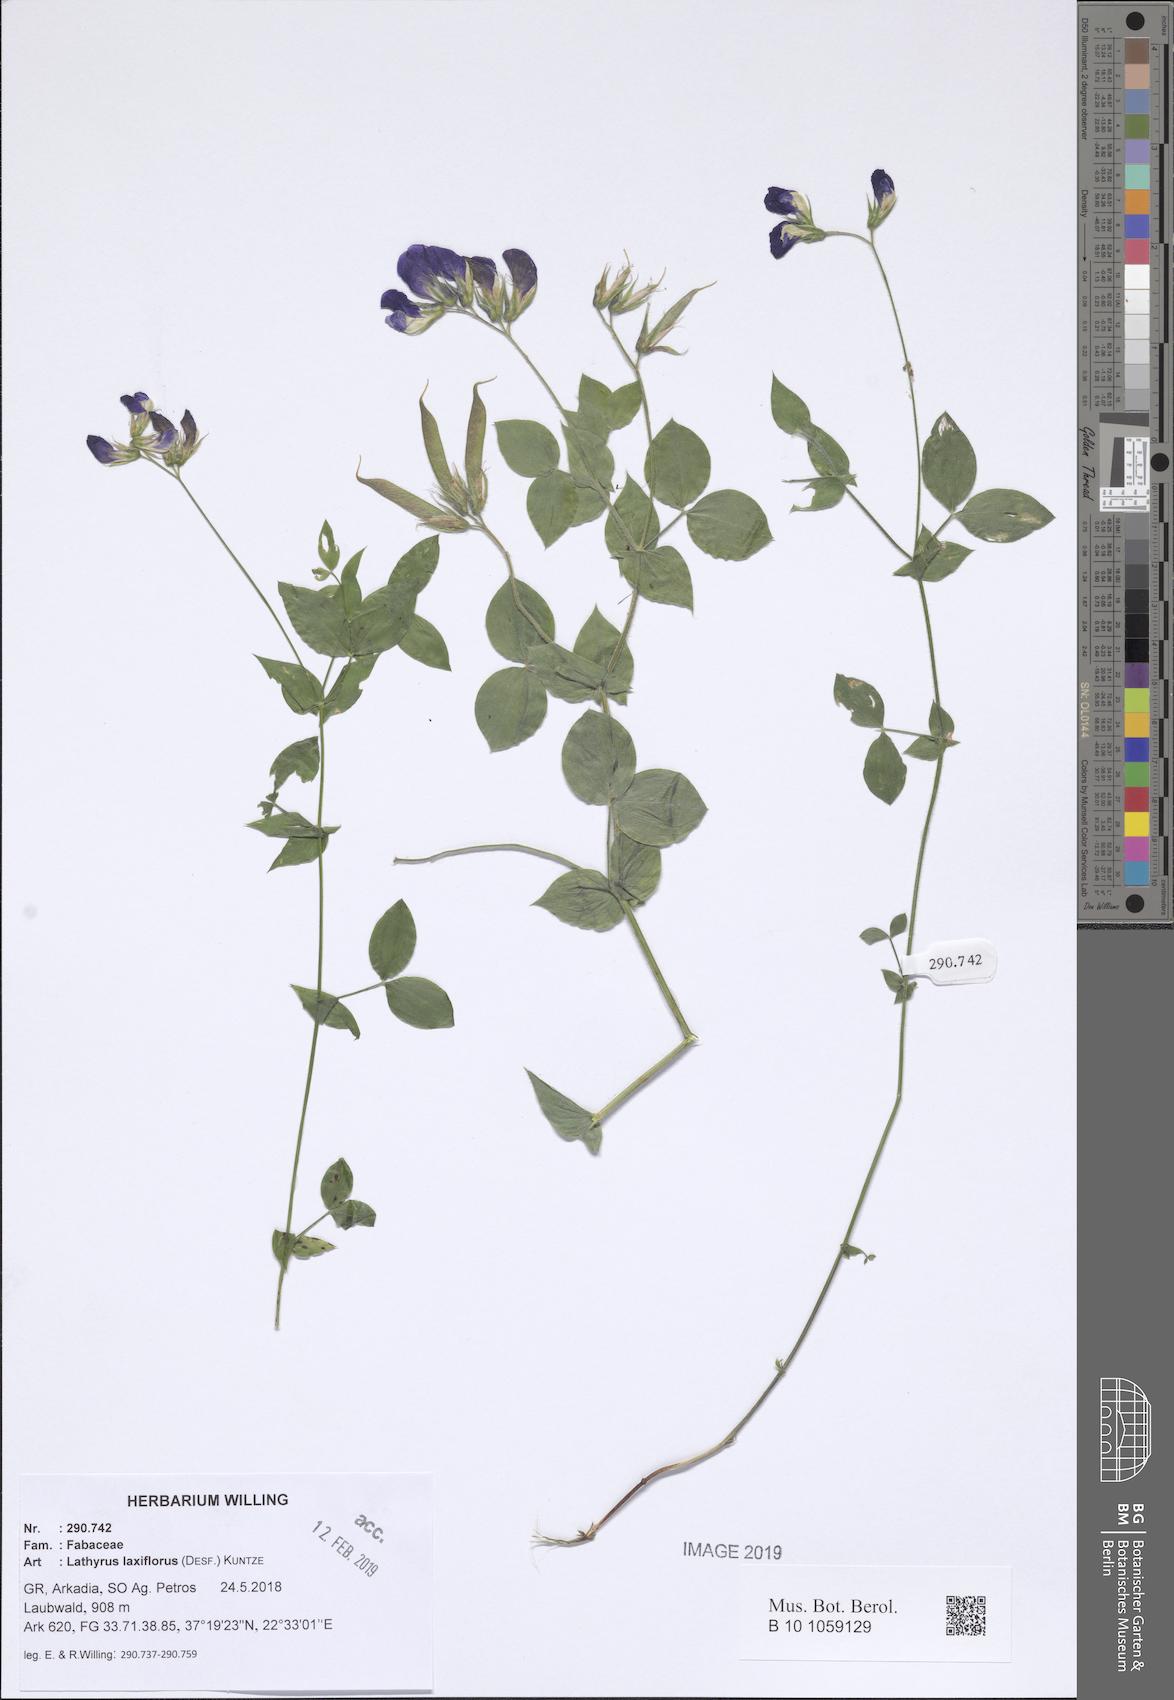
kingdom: Plantae
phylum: Tracheophyta
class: Magnoliopsida
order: Fabales
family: Fabaceae
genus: Lathyrus
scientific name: Lathyrus laxiflorus
